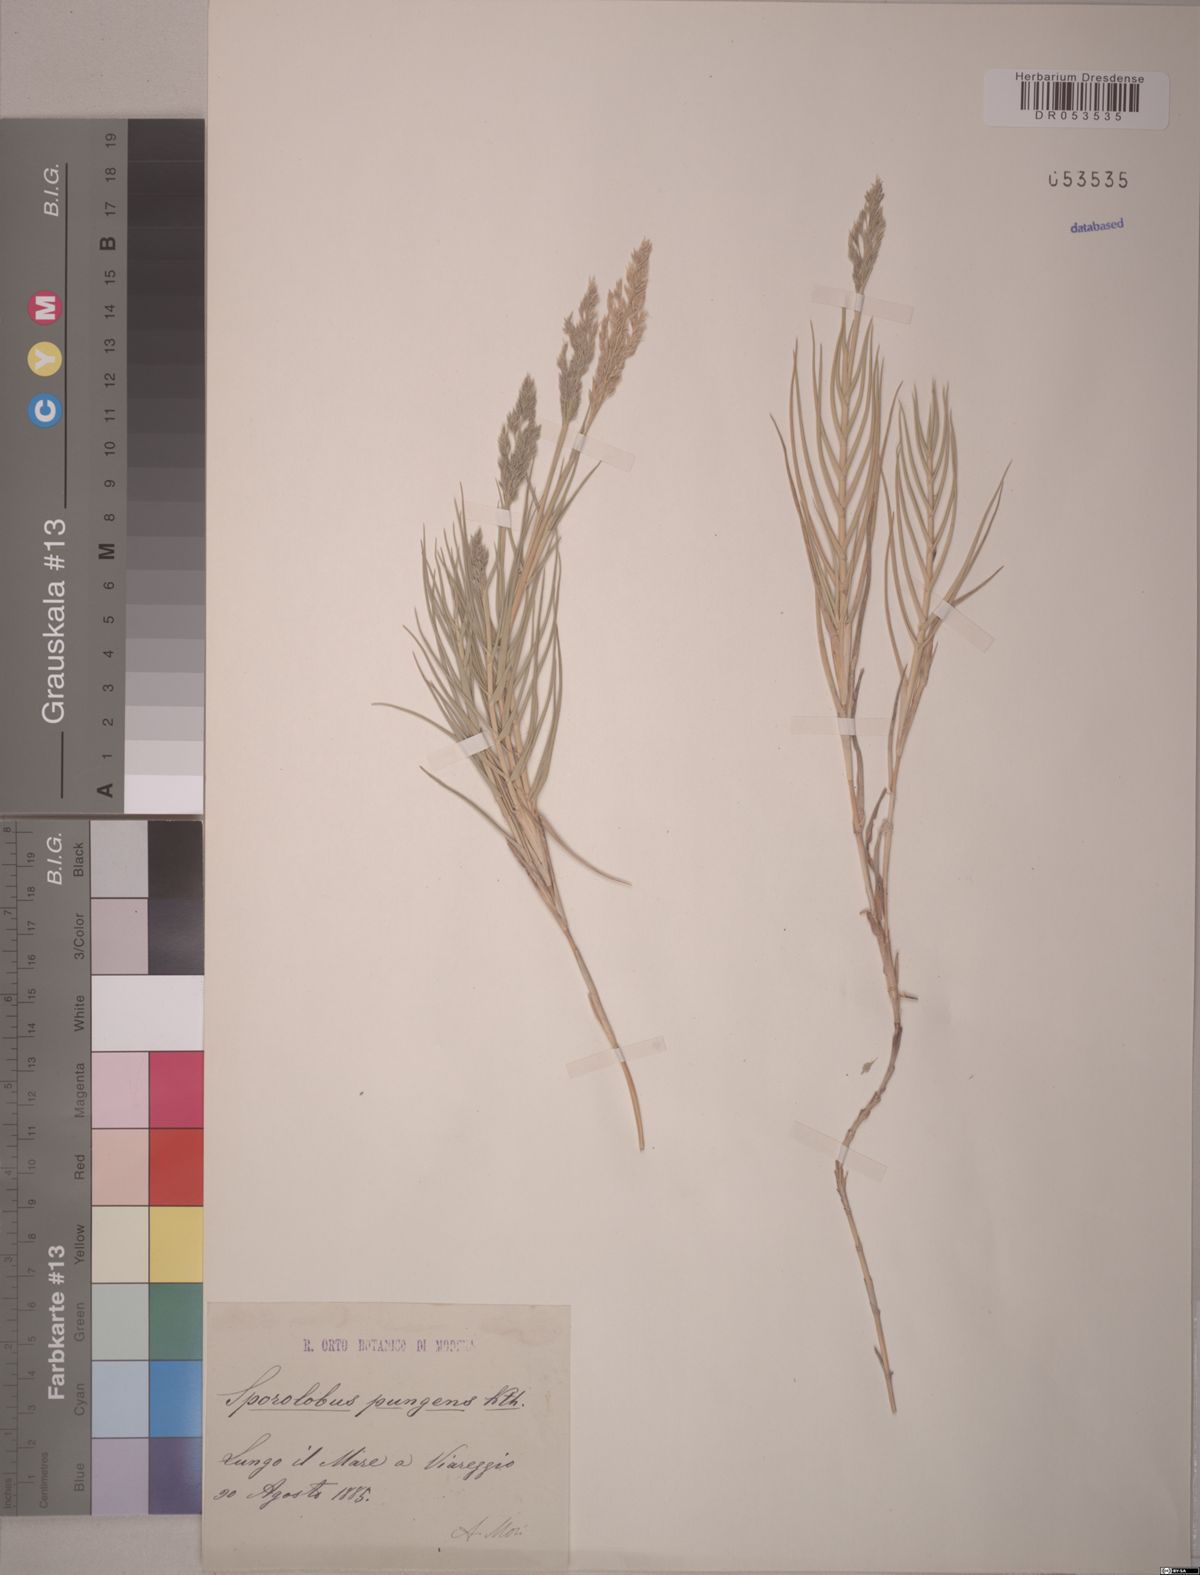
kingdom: Plantae
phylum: Tracheophyta
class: Liliopsida
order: Poales
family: Poaceae
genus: Sporobolus
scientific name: Sporobolus pungens
